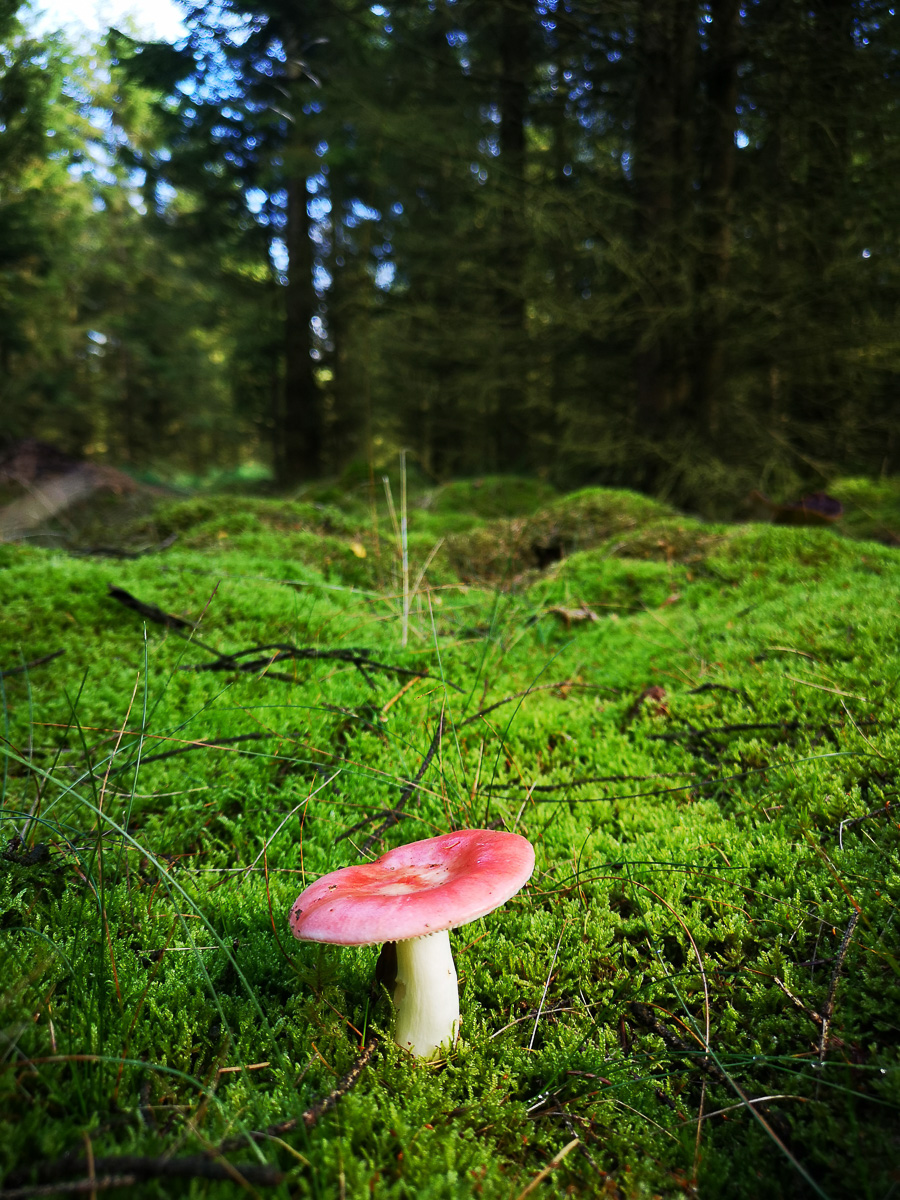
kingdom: Fungi
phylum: Basidiomycota
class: Agaricomycetes
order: Russulales
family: Russulaceae
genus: Russula
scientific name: Russula emetica
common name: stor gift-skørhat
